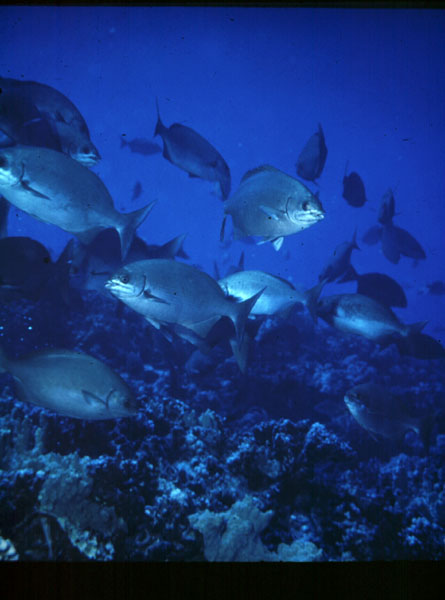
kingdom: Animalia
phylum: Chordata
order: Perciformes
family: Kyphosidae
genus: Kyphosus
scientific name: Kyphosus bigibbus
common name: Brown chub
